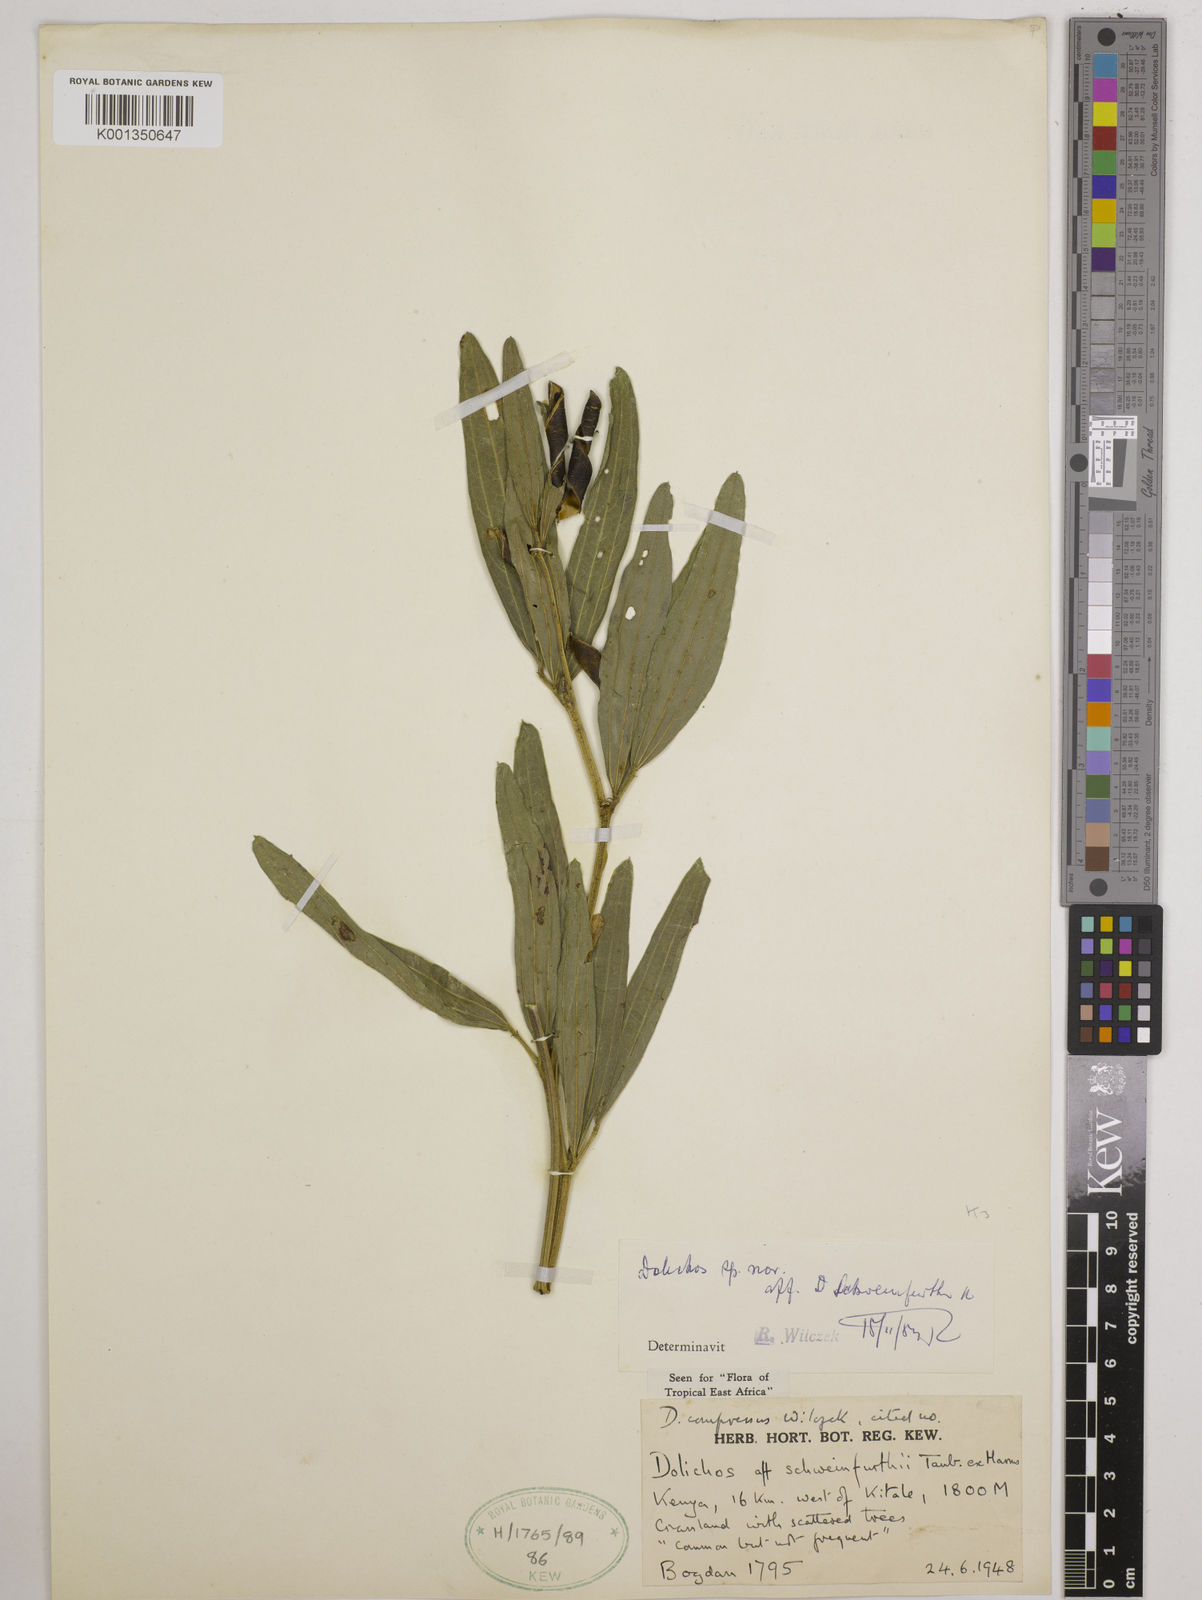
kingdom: Plantae
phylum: Tracheophyta
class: Magnoliopsida
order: Fabales
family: Fabaceae
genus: Dolichos
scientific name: Dolichos compressus
